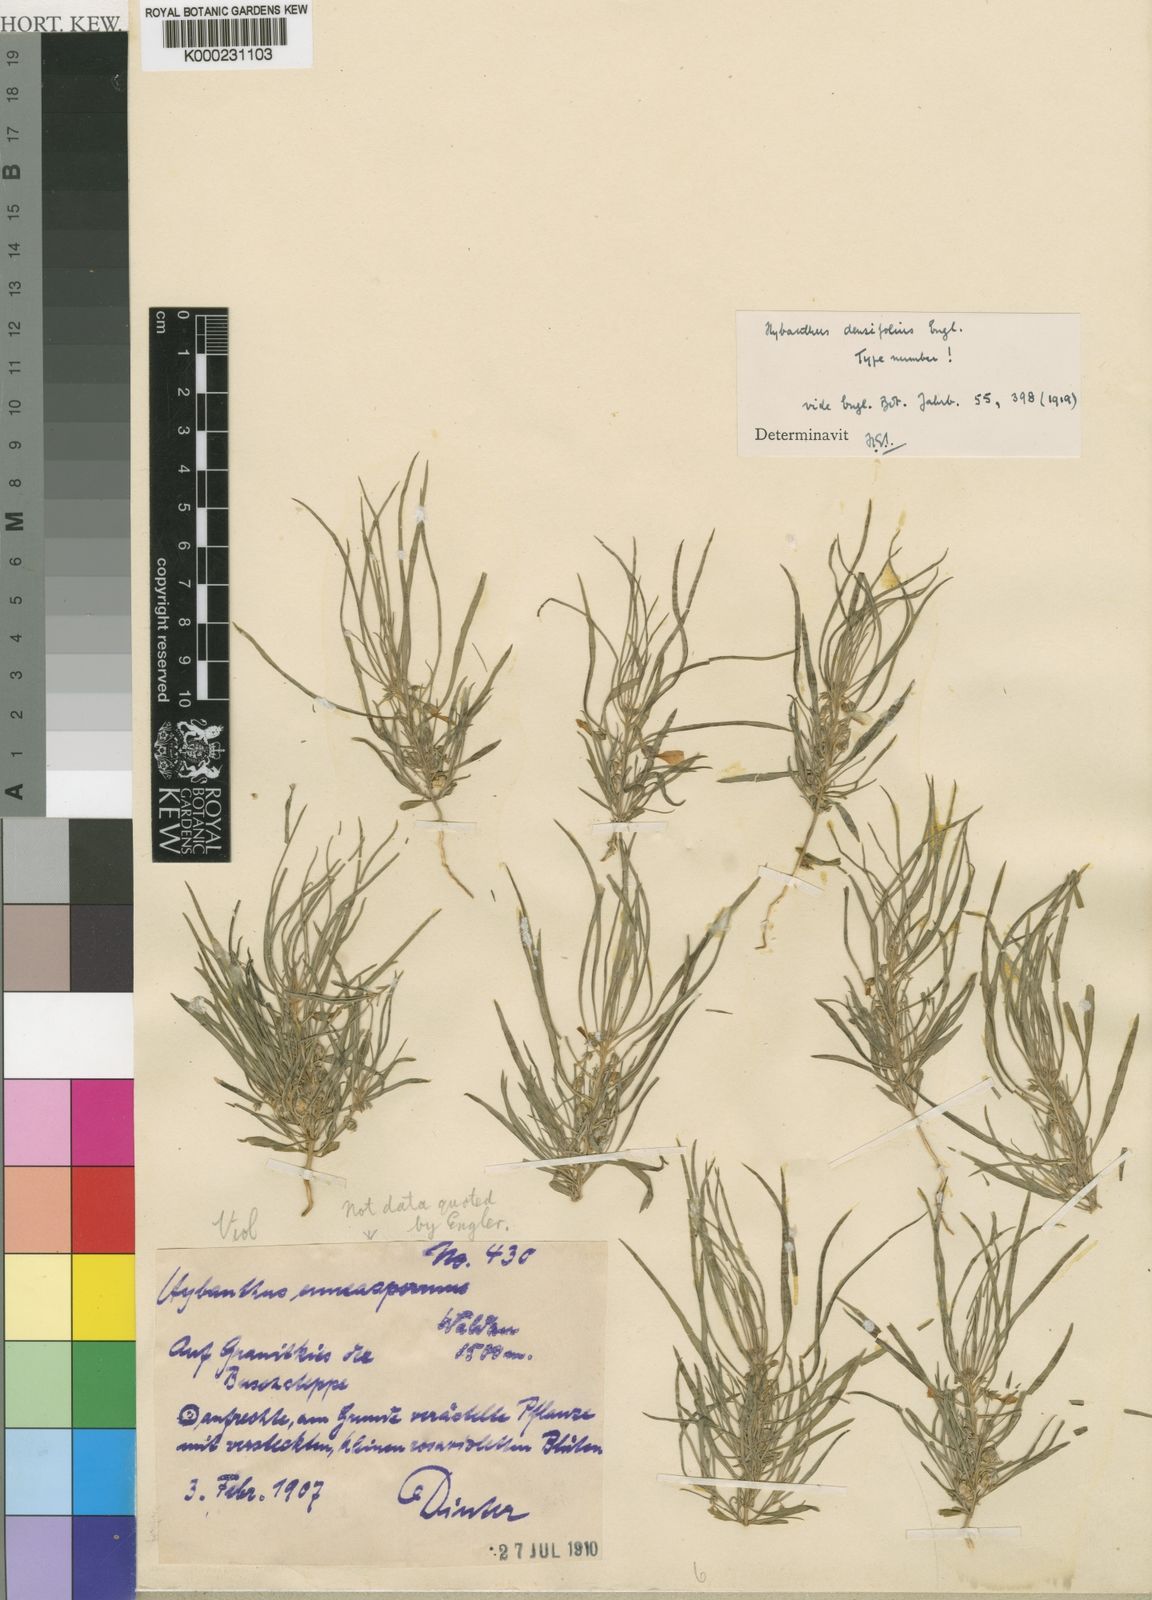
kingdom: Plantae
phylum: Tracheophyta
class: Magnoliopsida
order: Malpighiales
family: Violaceae
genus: Pigea
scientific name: Pigea densifolia
